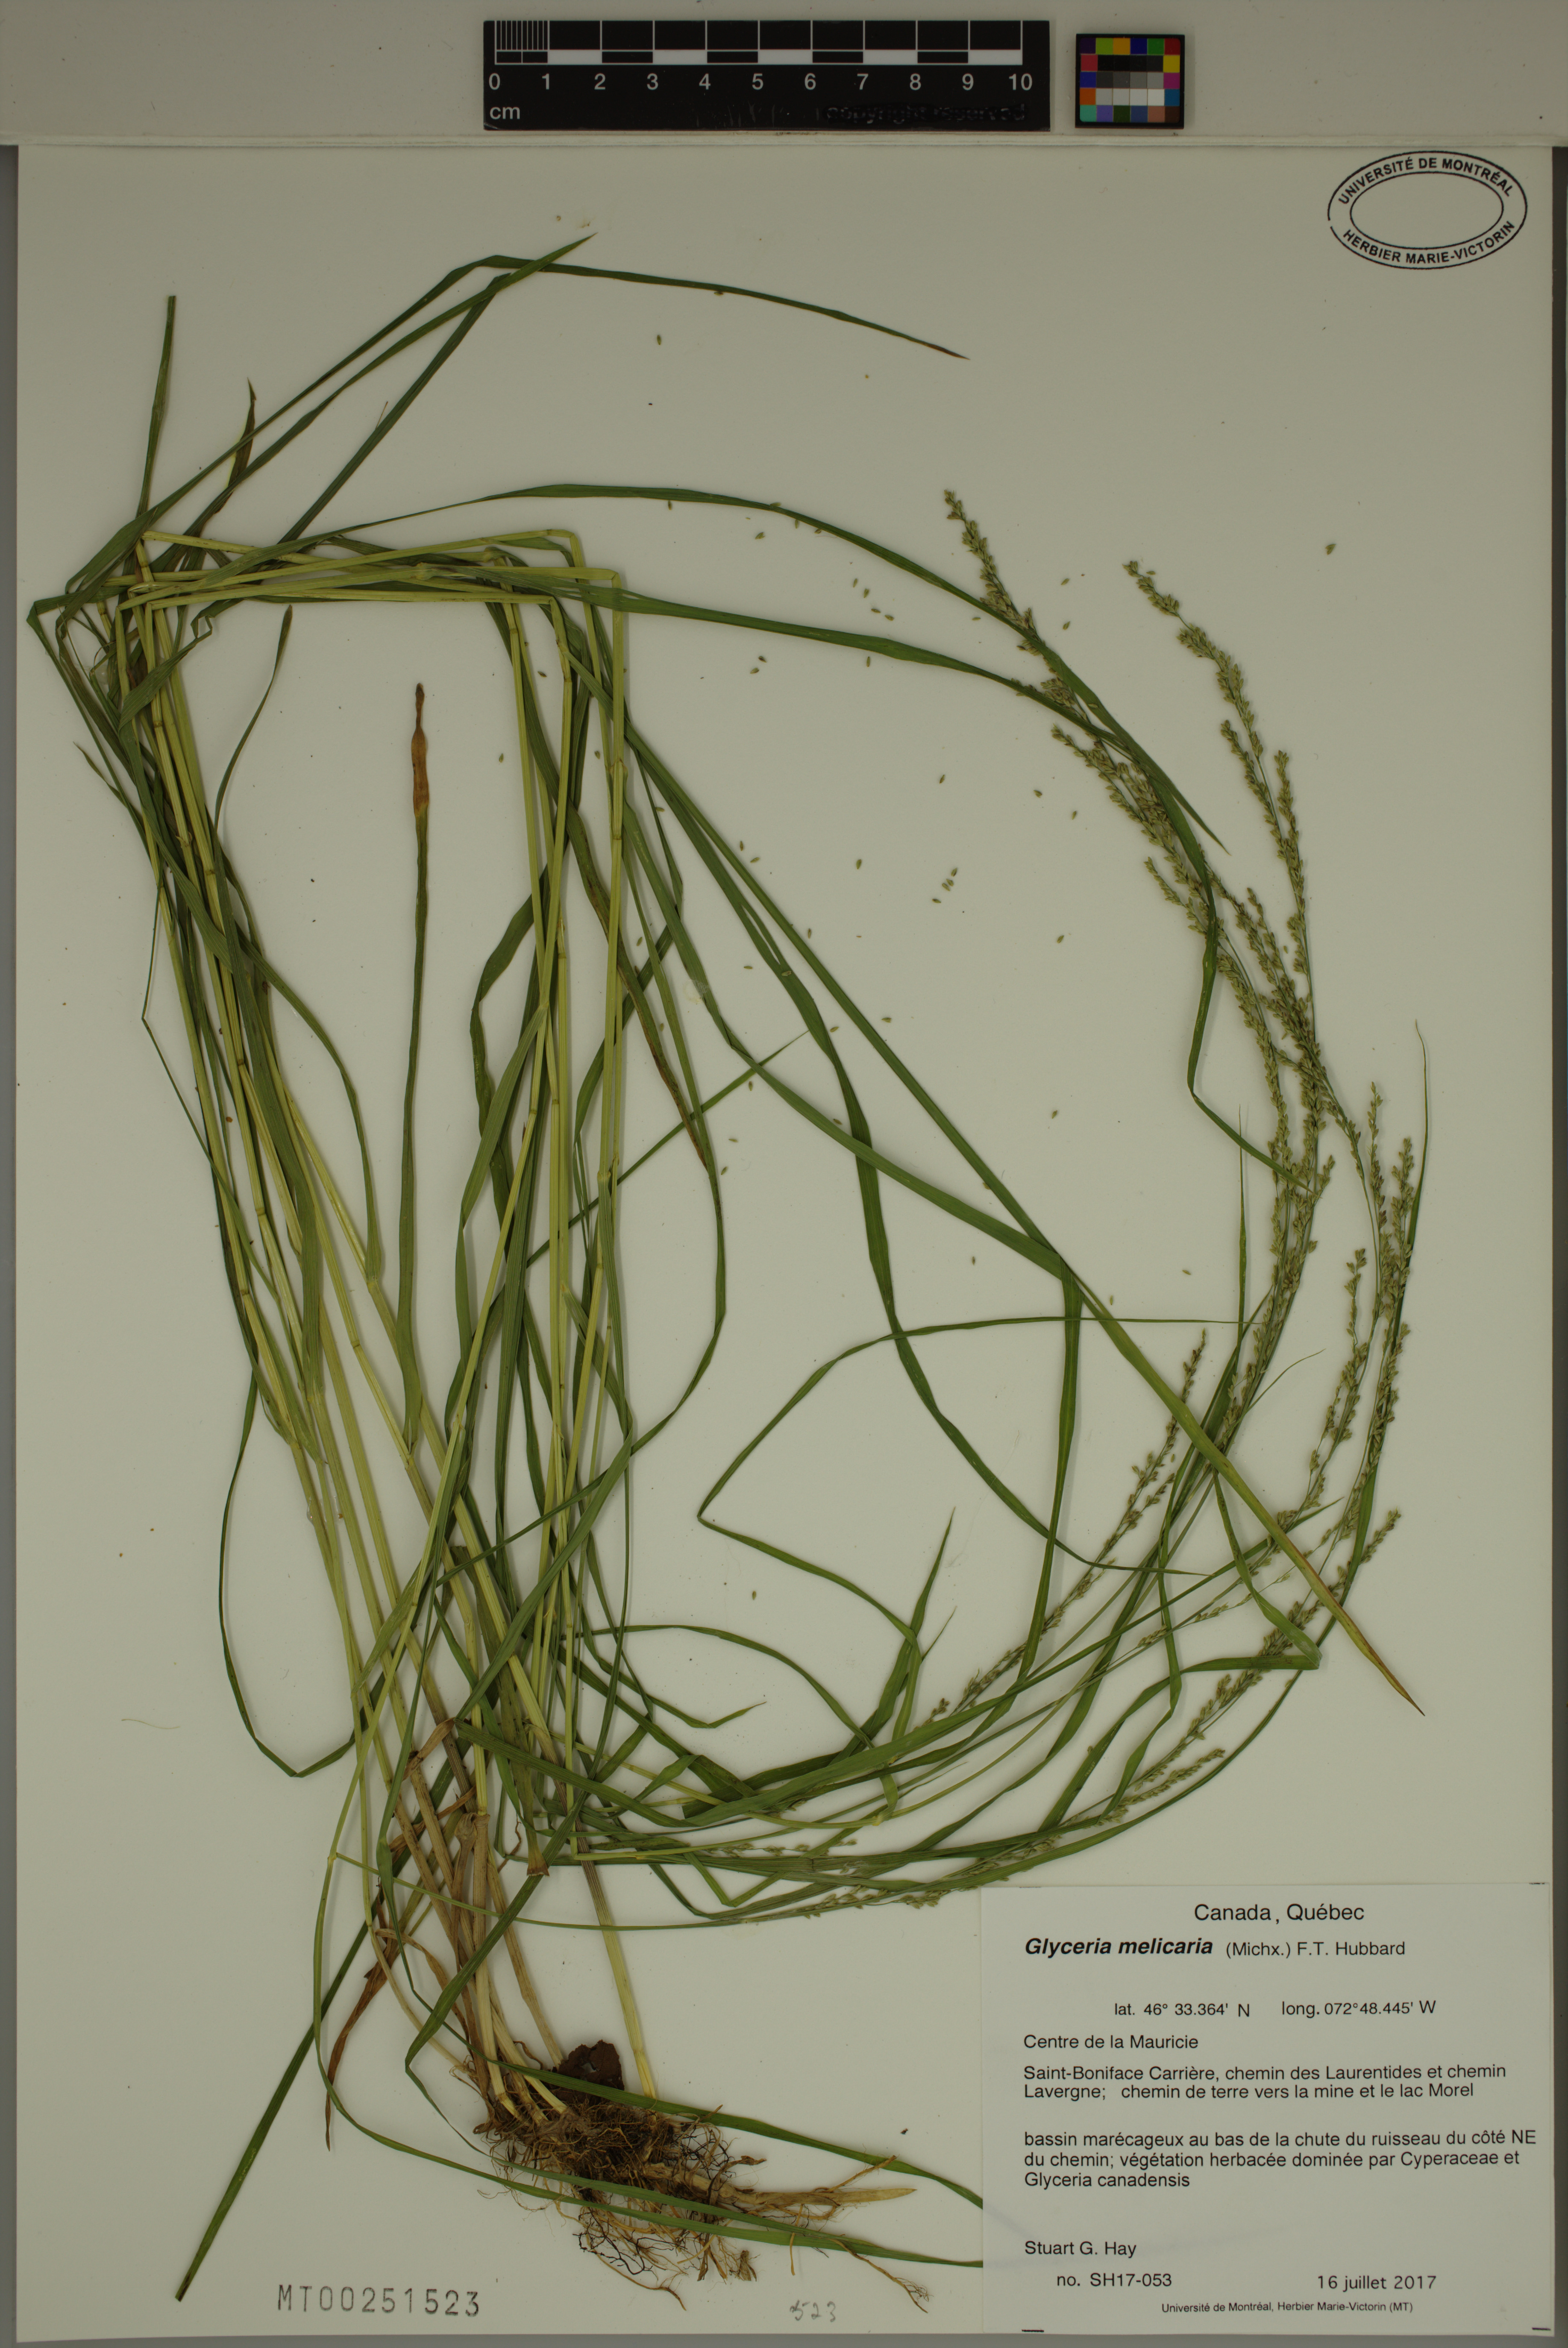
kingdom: Plantae
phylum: Tracheophyta
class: Liliopsida
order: Poales
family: Poaceae
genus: Glyceria
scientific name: Glyceria melicaria
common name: Long mannagrass
